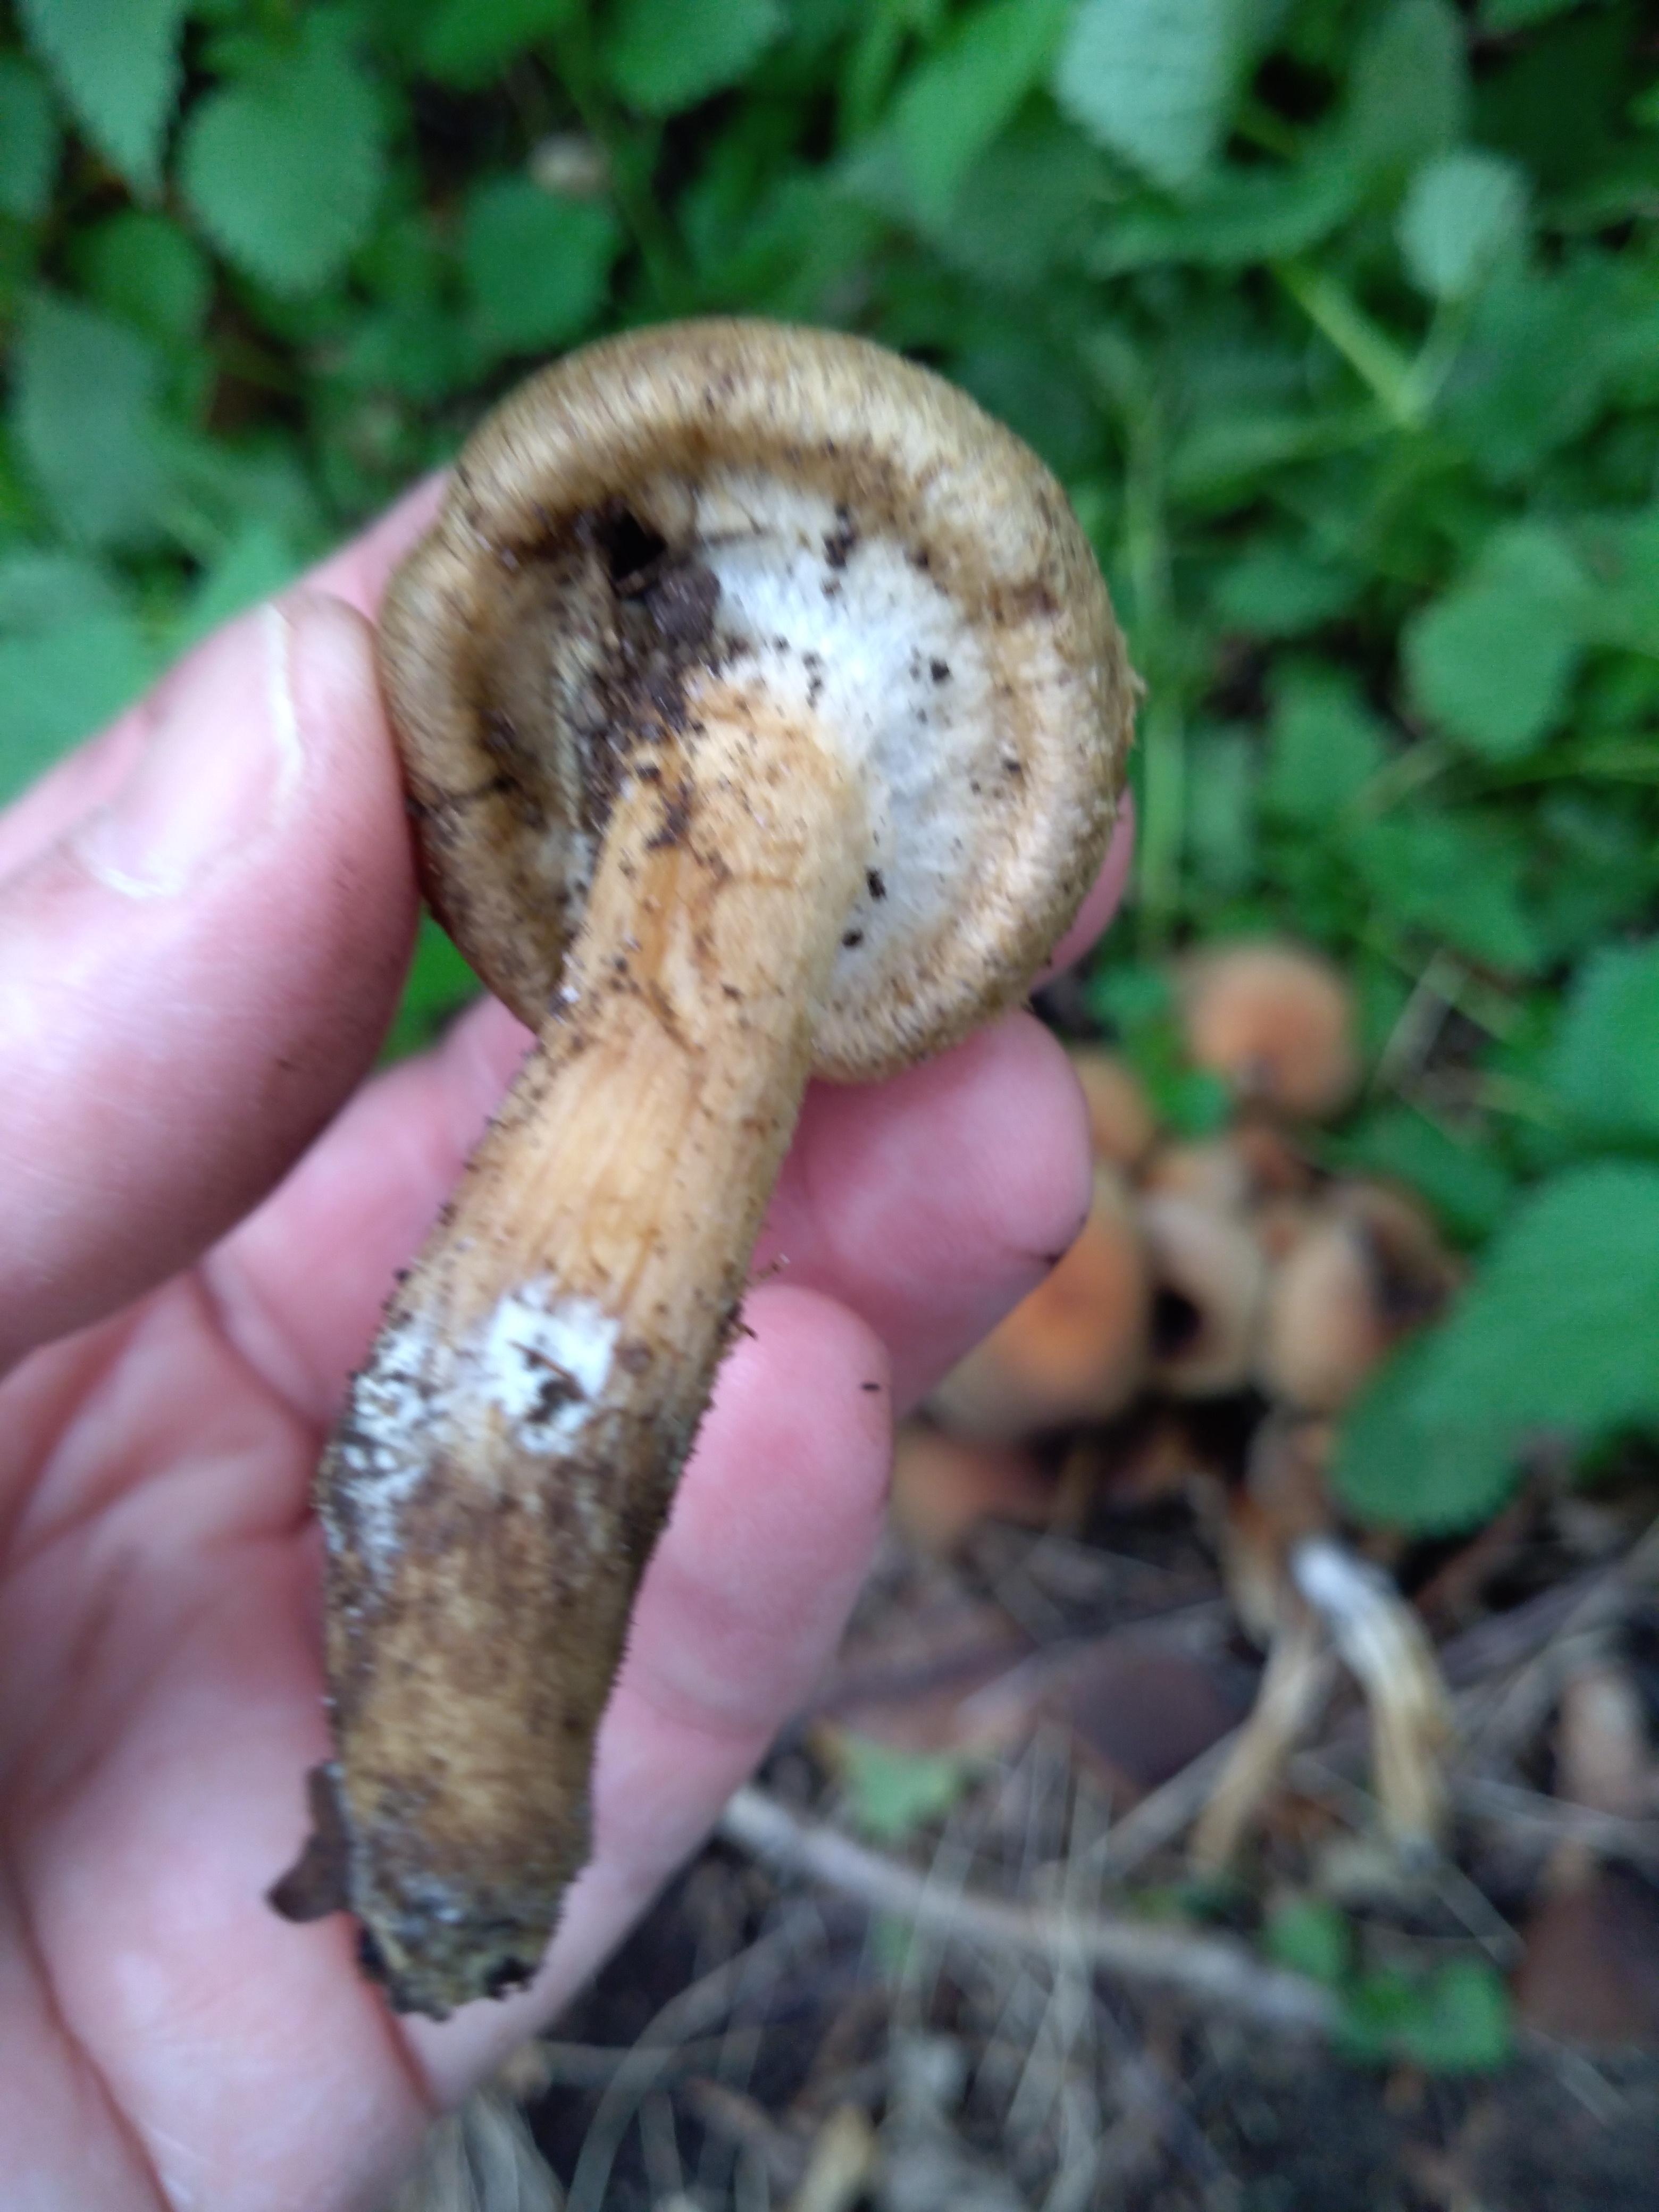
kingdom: Fungi
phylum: Basidiomycota
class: Agaricomycetes
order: Agaricales
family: Psathyrellaceae
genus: Lacrymaria
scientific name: Lacrymaria lacrymabunda
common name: grædende mørkhat
